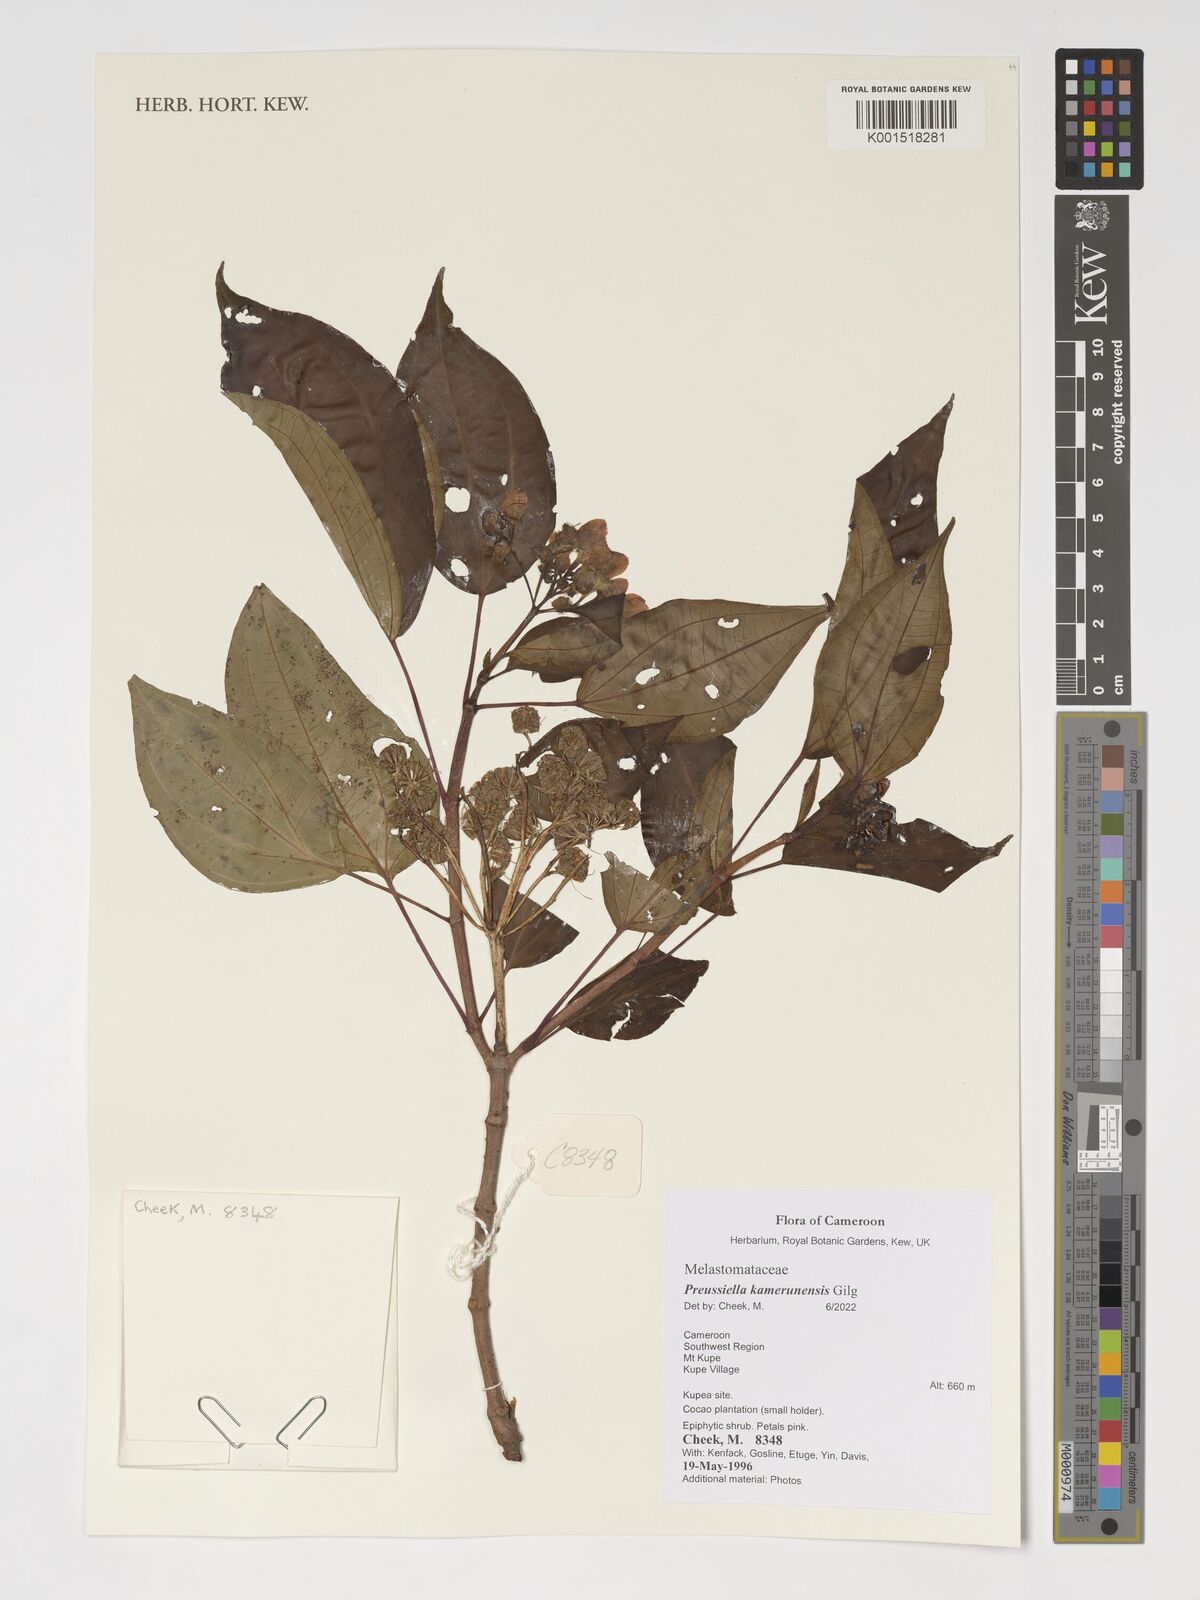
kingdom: Plantae
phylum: Tracheophyta
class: Magnoliopsida
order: Myrtales
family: Melastomataceae
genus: Preussiella
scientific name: Preussiella kamerunensis
